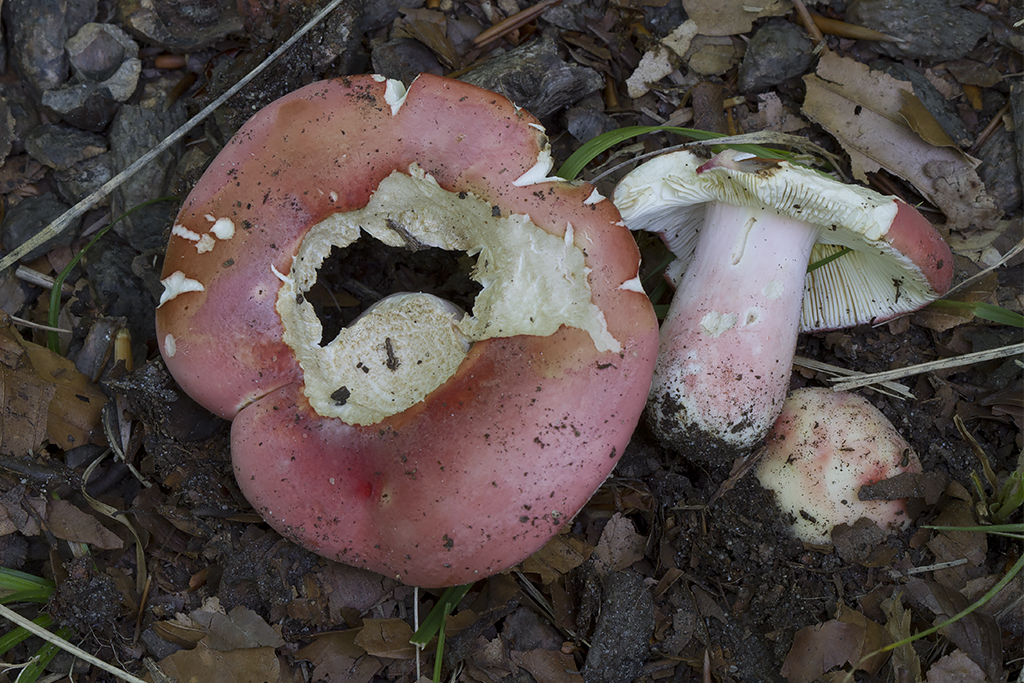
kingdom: Fungi
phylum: Basidiomycota
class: Agaricomycetes
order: Russulales
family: Russulaceae
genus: Russula
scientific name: Russula rosea
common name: fastkødet skørhat
